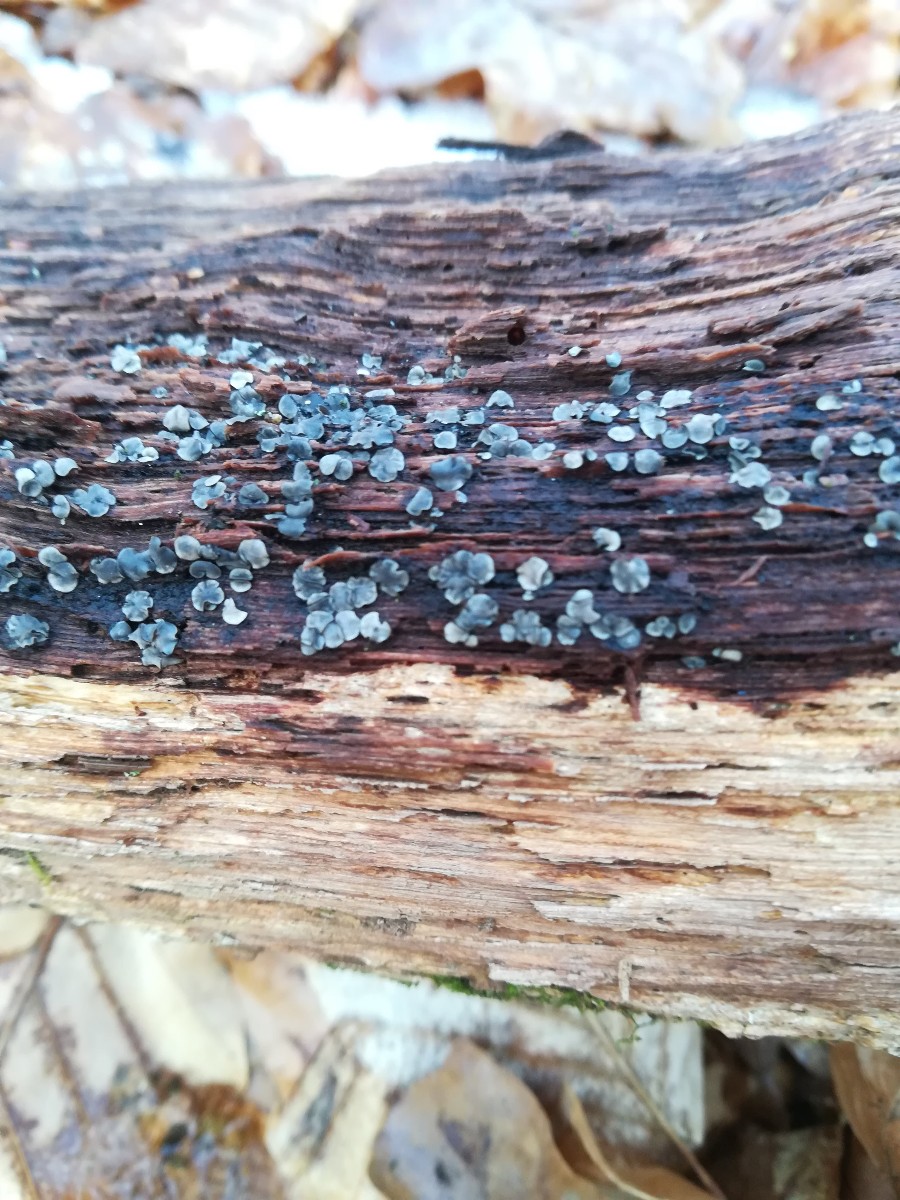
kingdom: Fungi
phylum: Ascomycota
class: Leotiomycetes
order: Helotiales
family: Mollisiaceae
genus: Mollisia
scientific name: Mollisia
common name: gråskive
